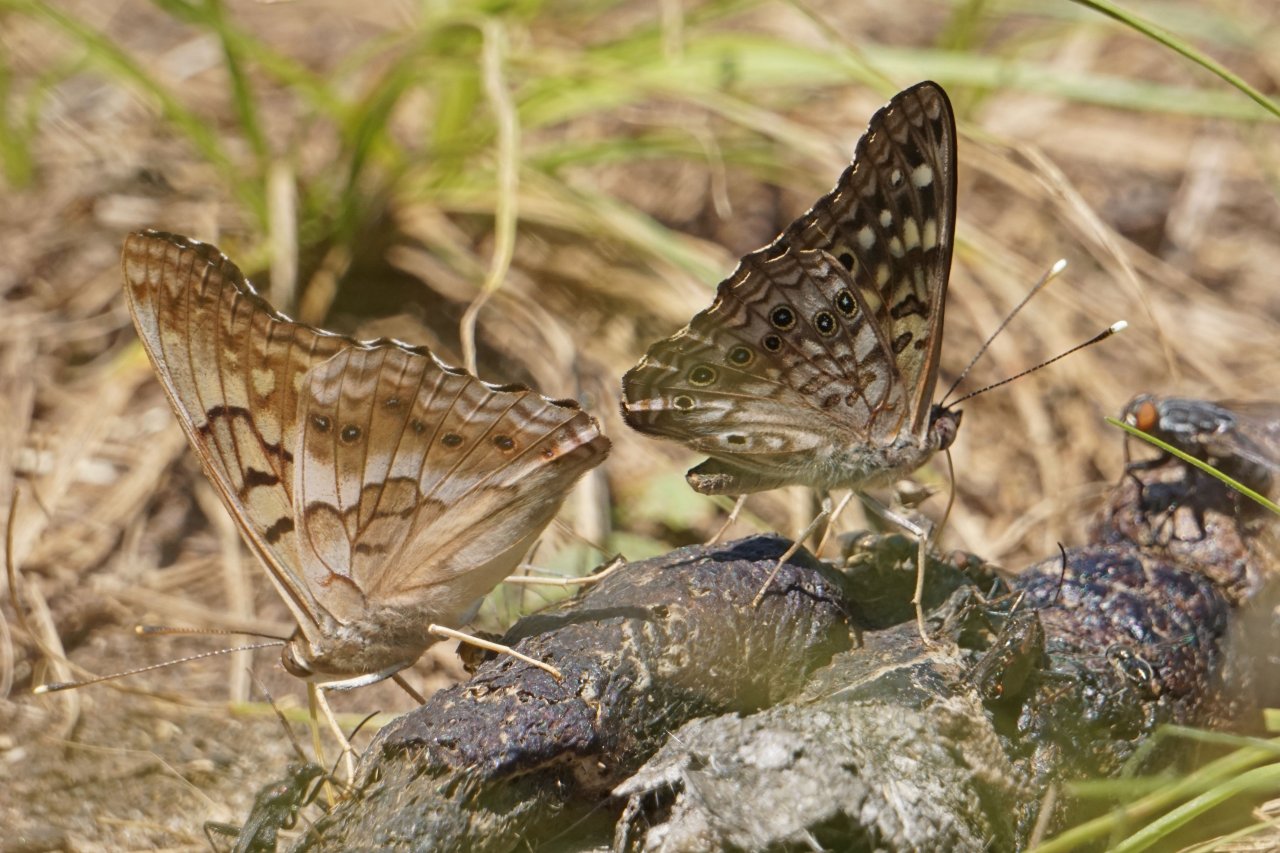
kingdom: Animalia
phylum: Arthropoda
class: Insecta
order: Lepidoptera
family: Nymphalidae
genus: Asterocampa
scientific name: Asterocampa celtis
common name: Hackberry Emperor
